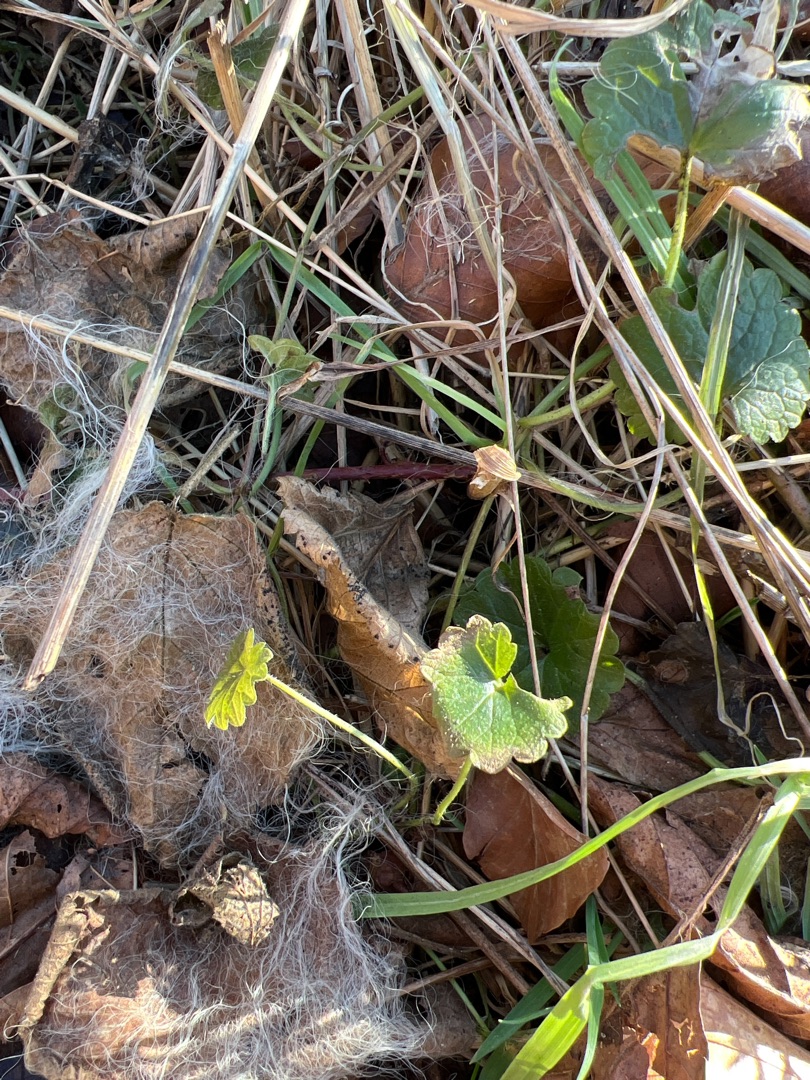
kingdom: Plantae
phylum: Tracheophyta
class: Magnoliopsida
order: Lamiales
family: Lamiaceae
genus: Glechoma
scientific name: Glechoma hederacea
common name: Korsknap
